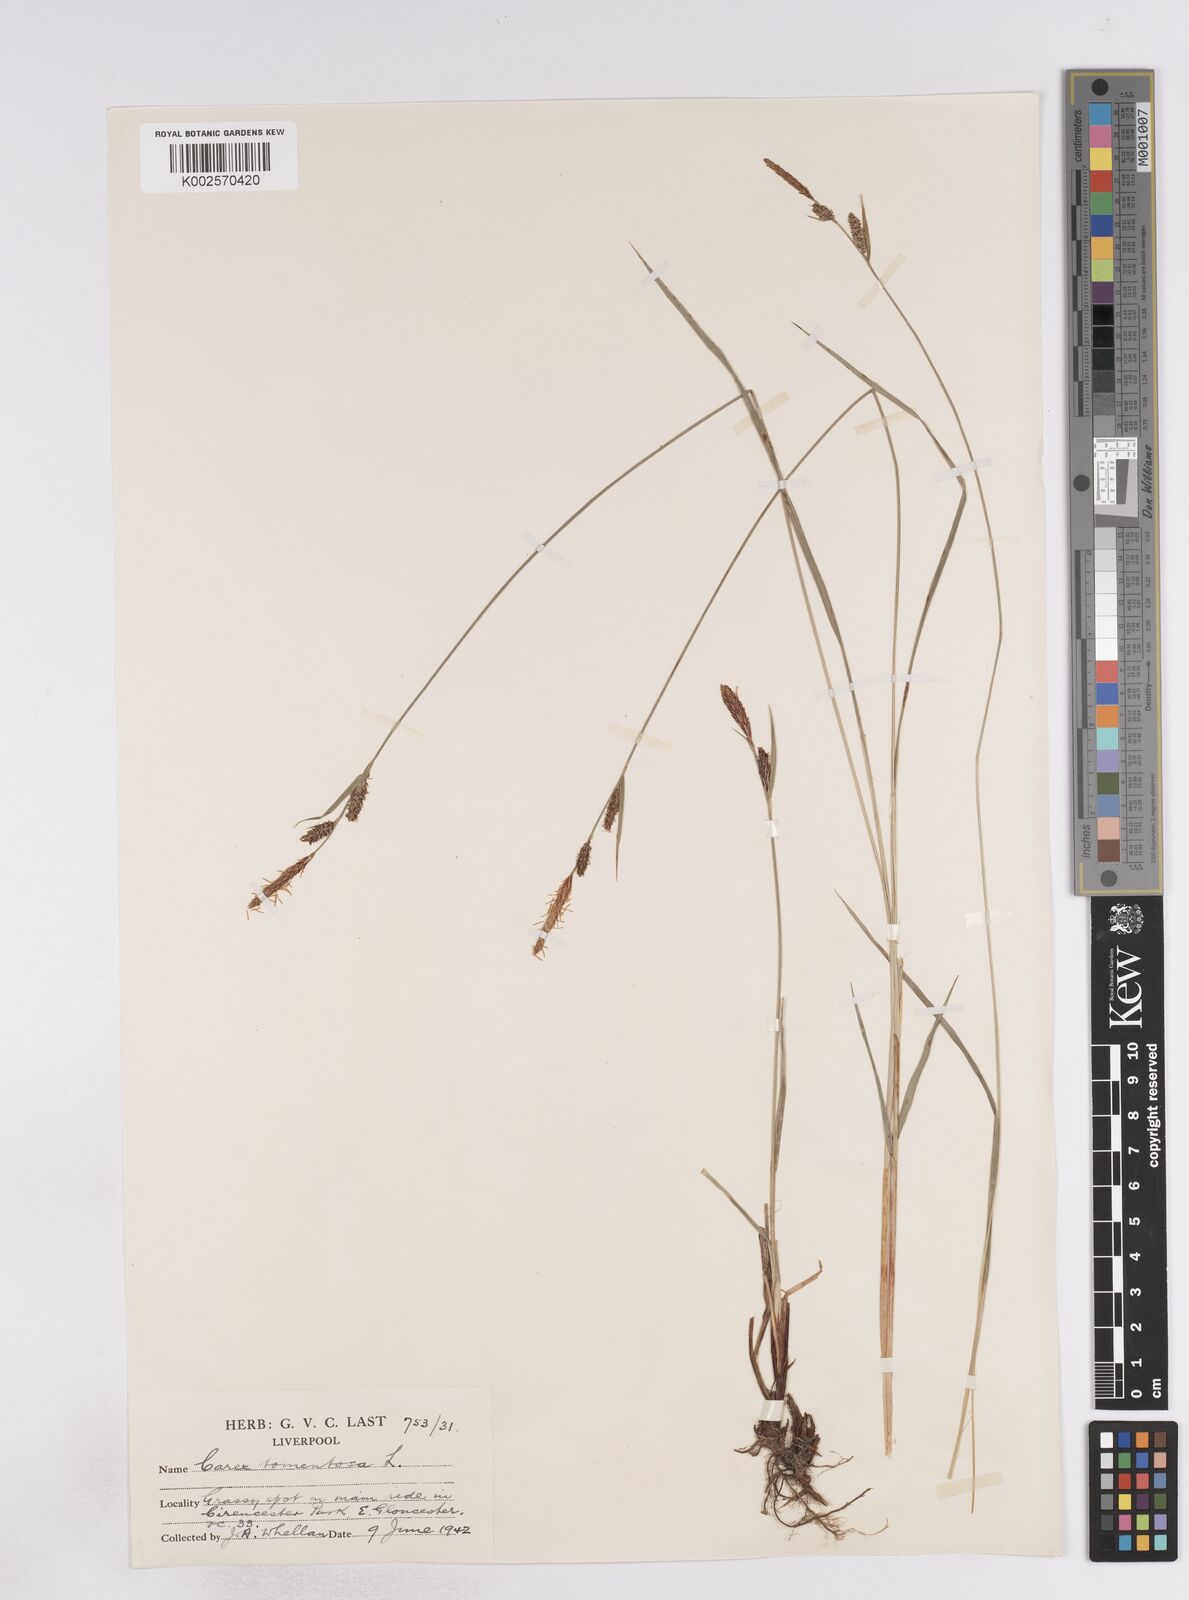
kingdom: Plantae
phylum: Tracheophyta
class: Liliopsida
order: Poales
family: Cyperaceae
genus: Carex
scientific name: Carex montana
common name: Soft-leaved sedge
